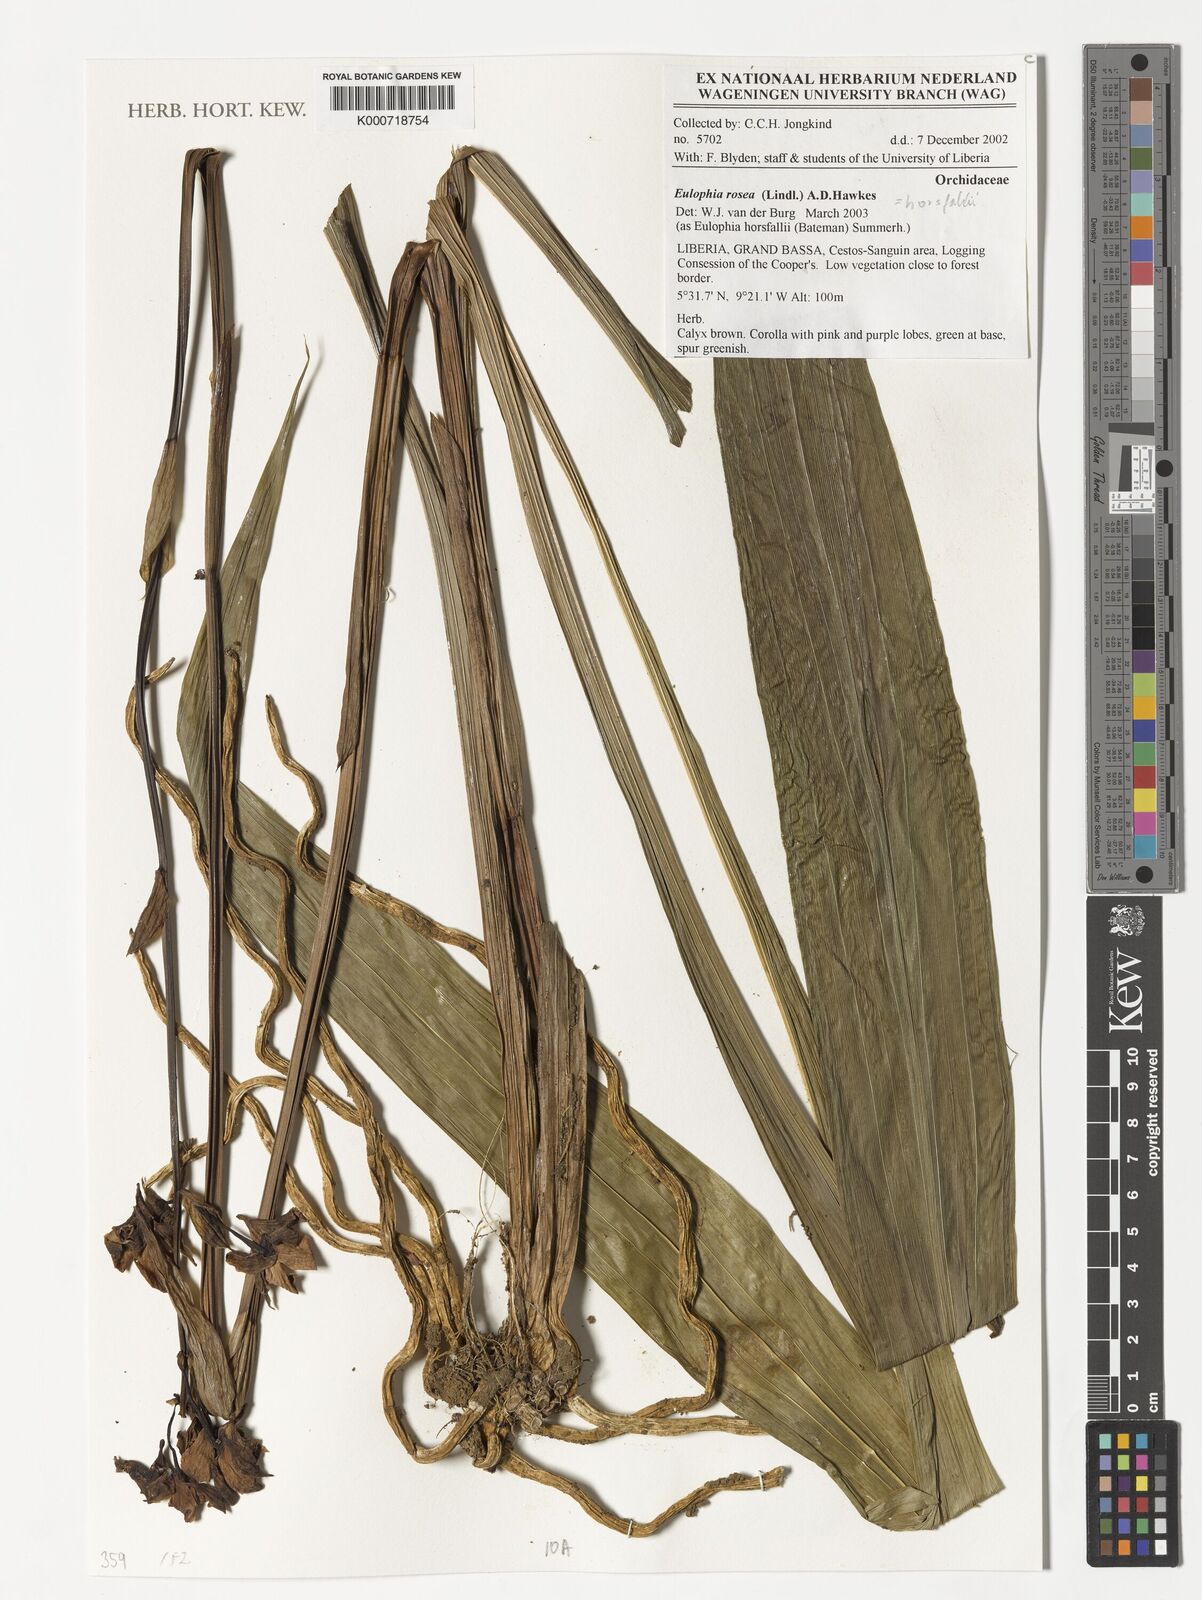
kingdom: Plantae
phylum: Tracheophyta
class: Liliopsida
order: Asparagales
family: Orchidaceae
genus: Eulophia
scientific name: Eulophia horsfallii
